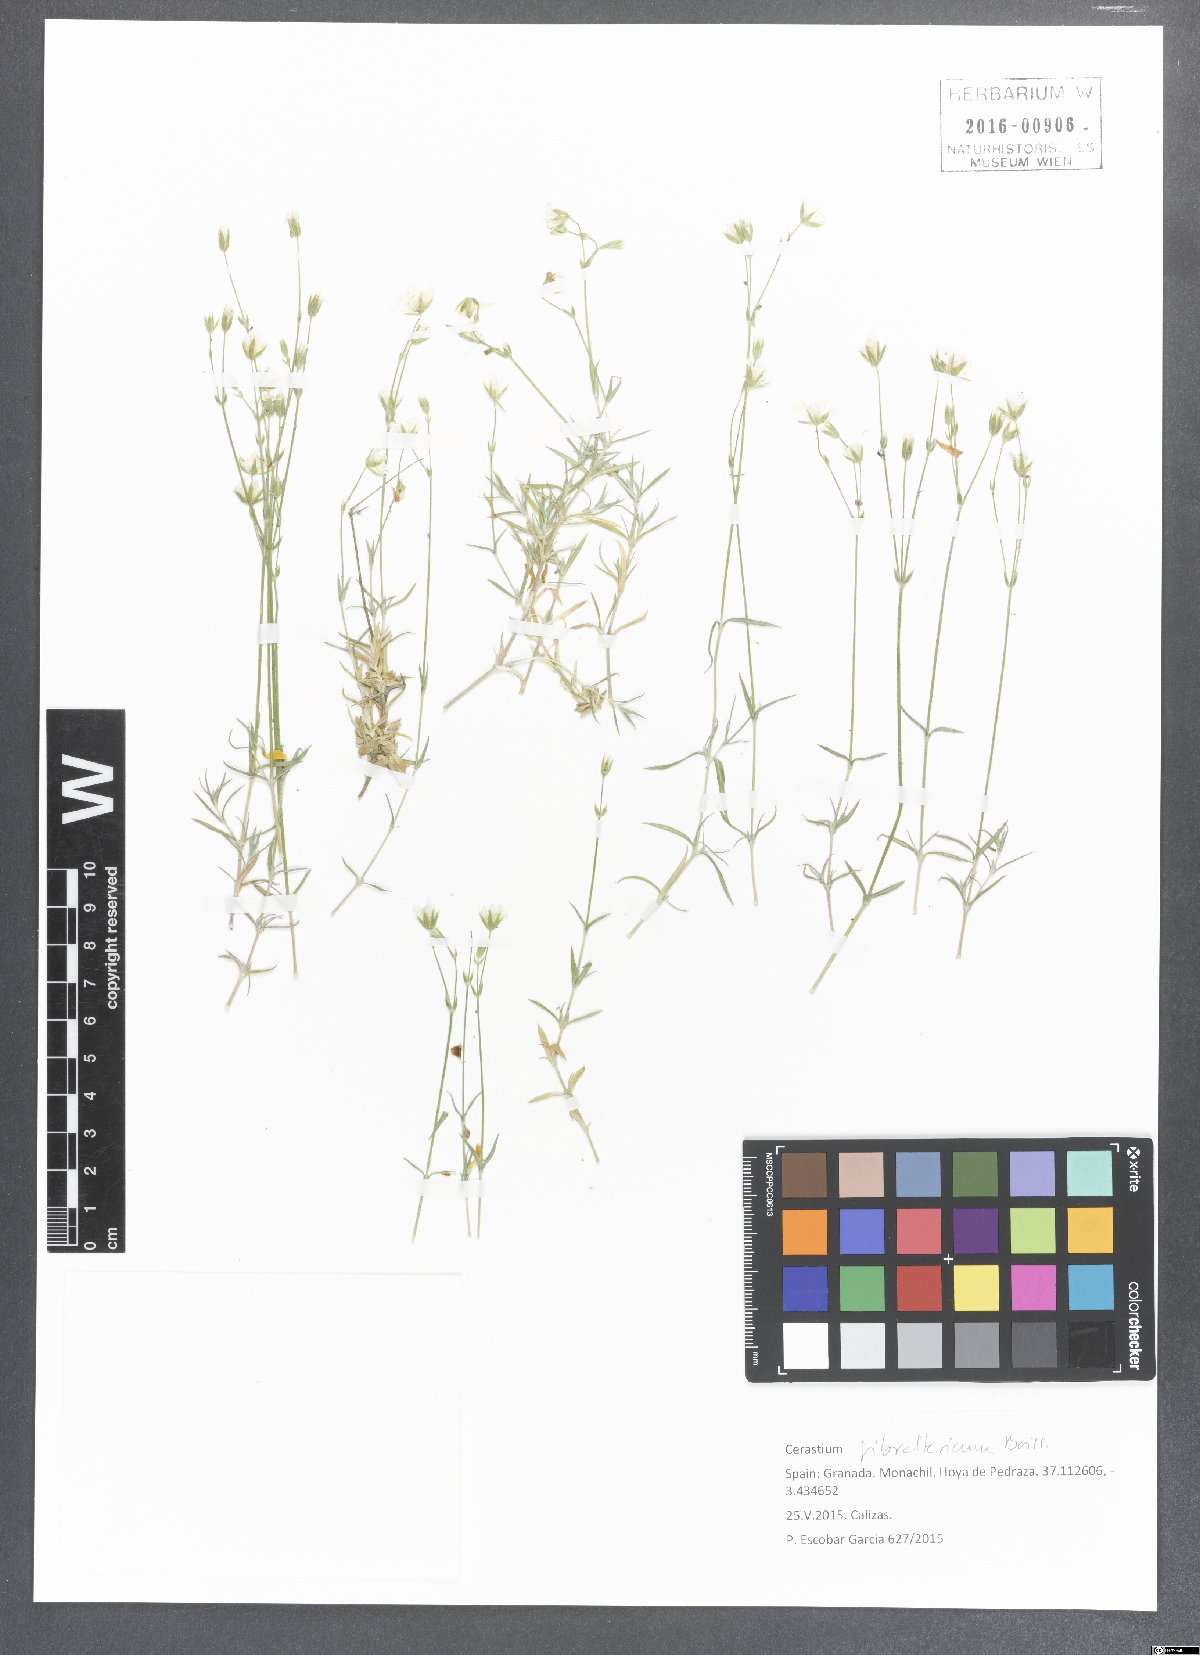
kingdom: Plantae
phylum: Tracheophyta
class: Magnoliopsida
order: Caryophyllales
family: Caryophyllaceae
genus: Cerastium
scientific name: Cerastium gibraltaricum
